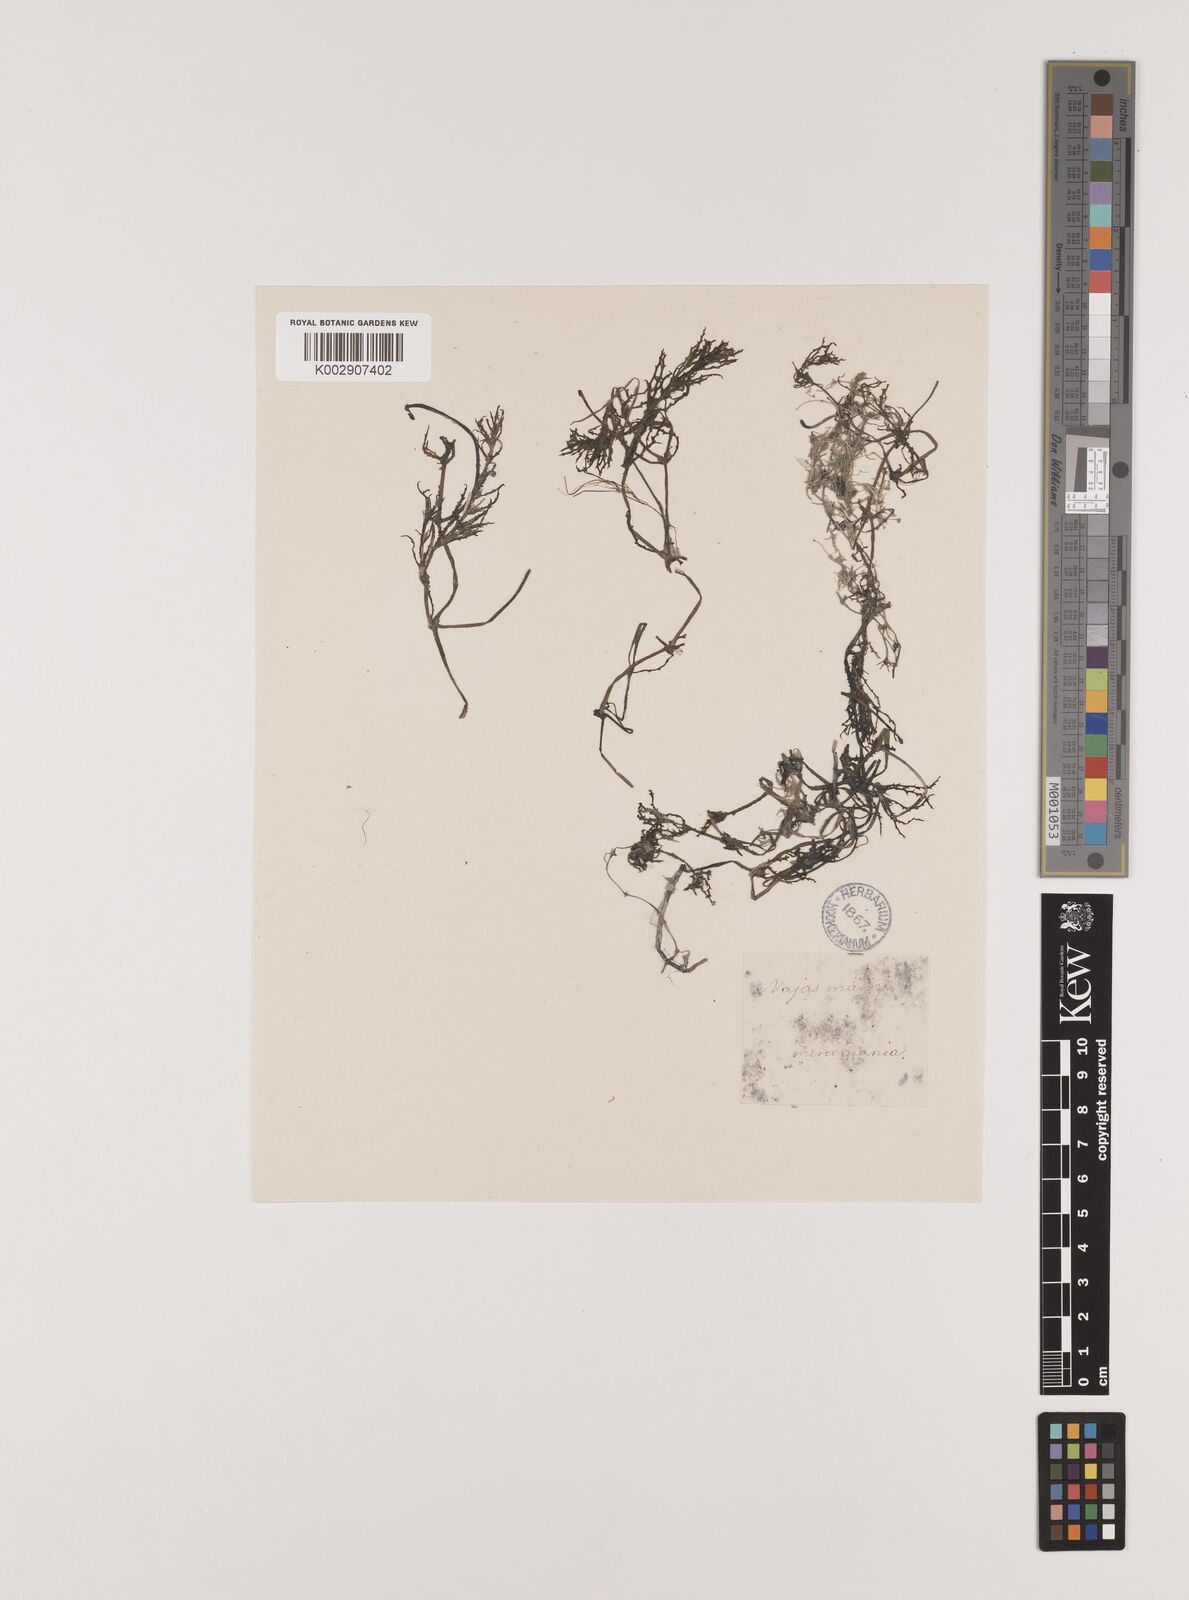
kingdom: Plantae
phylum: Tracheophyta
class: Liliopsida
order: Alismatales
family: Hydrocharitaceae
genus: Najas
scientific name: Najas marina
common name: Holly-leaved naiad
